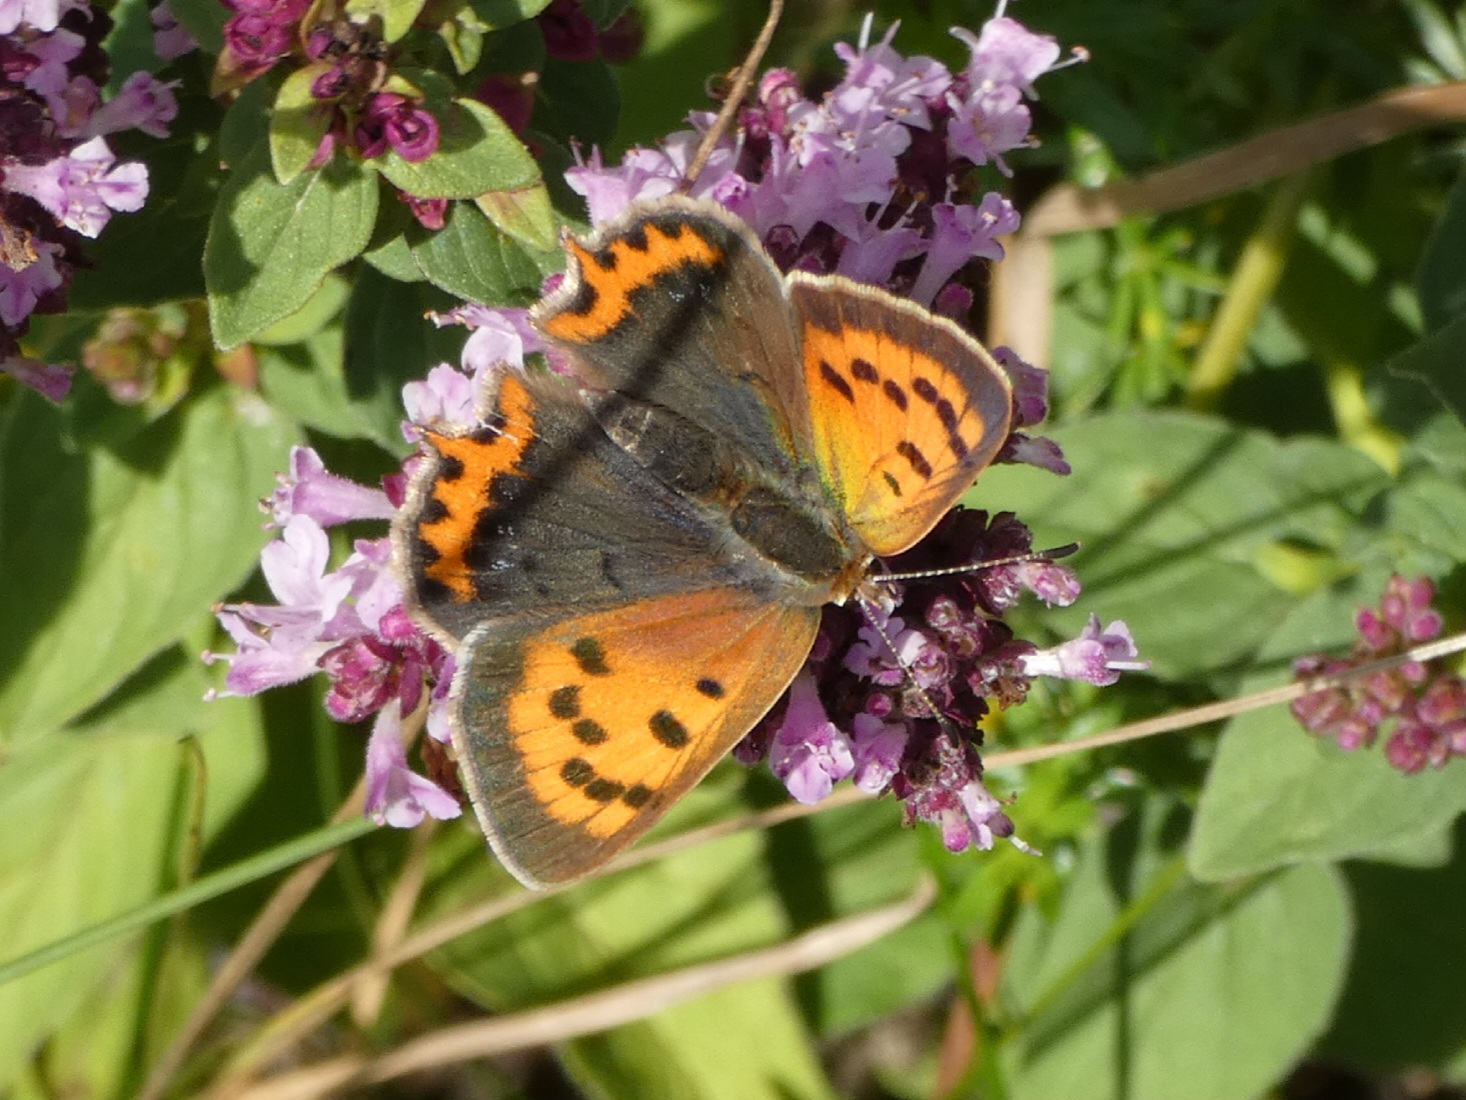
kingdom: Animalia
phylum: Arthropoda
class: Insecta
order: Lepidoptera
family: Lycaenidae
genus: Lycaena
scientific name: Lycaena phlaeas
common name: Lille ildfugl
